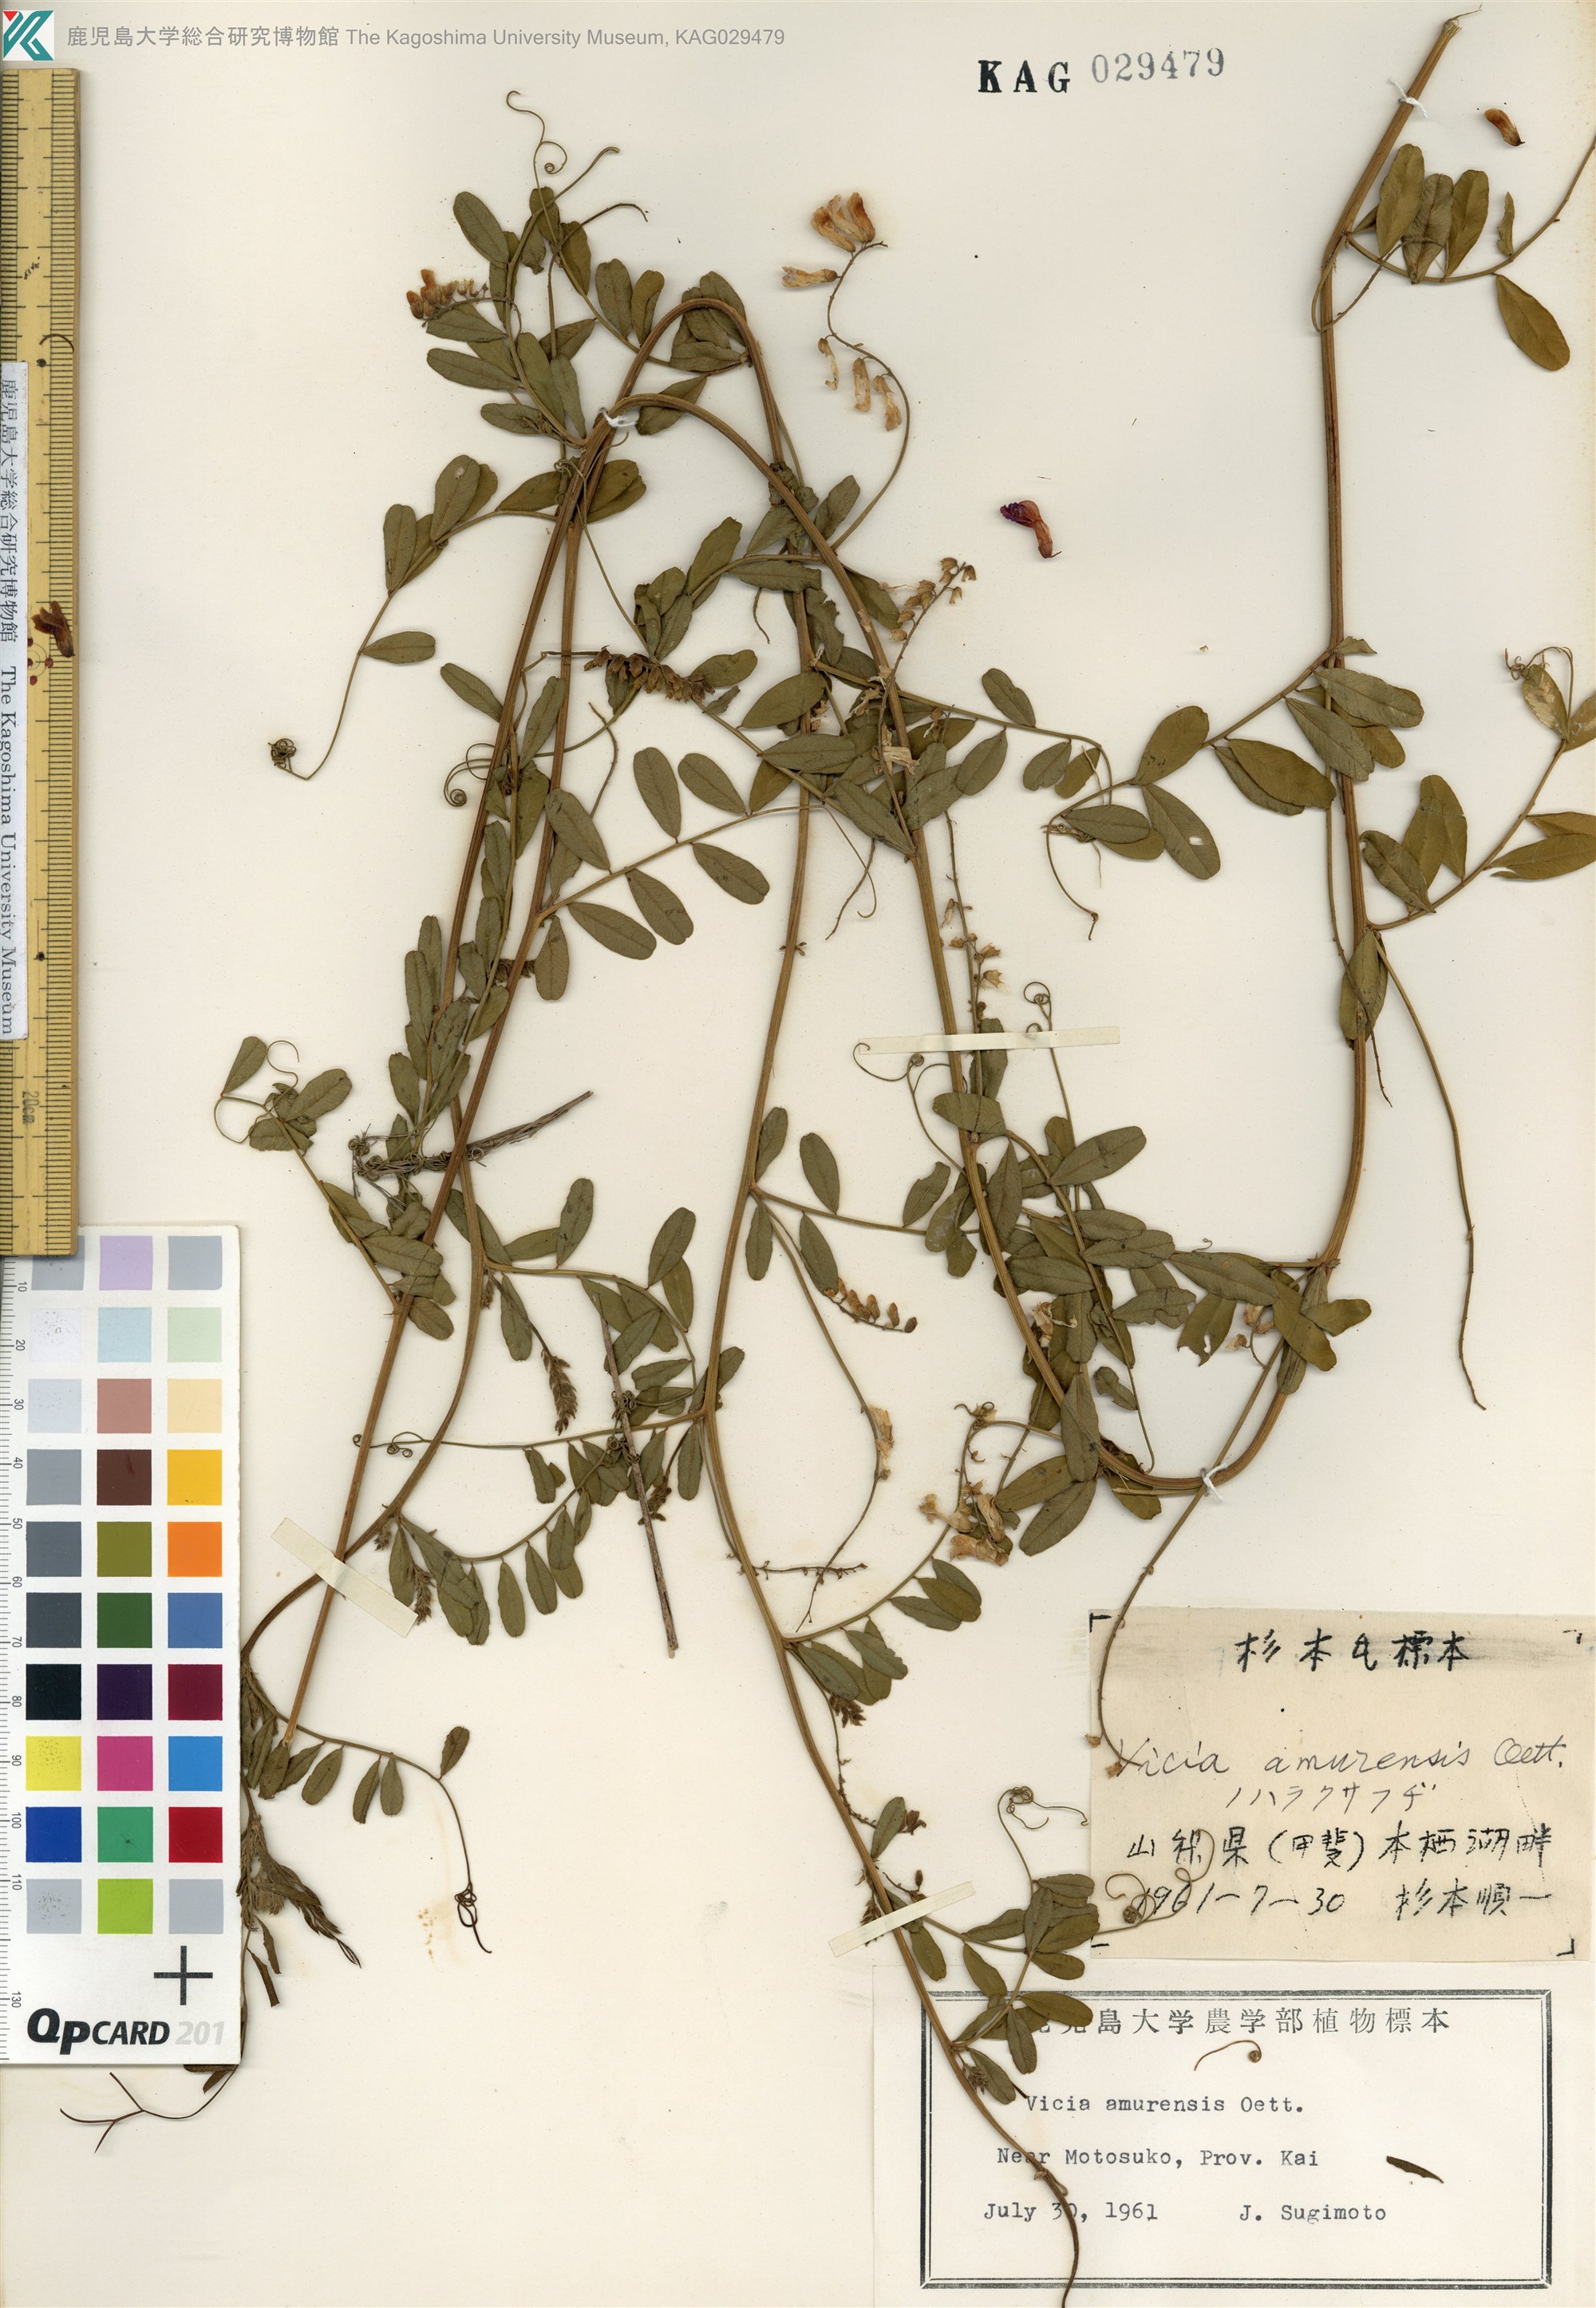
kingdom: Plantae
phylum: Tracheophyta
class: Magnoliopsida
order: Fabales
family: Fabaceae
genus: Vicia
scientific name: Vicia amurensis
